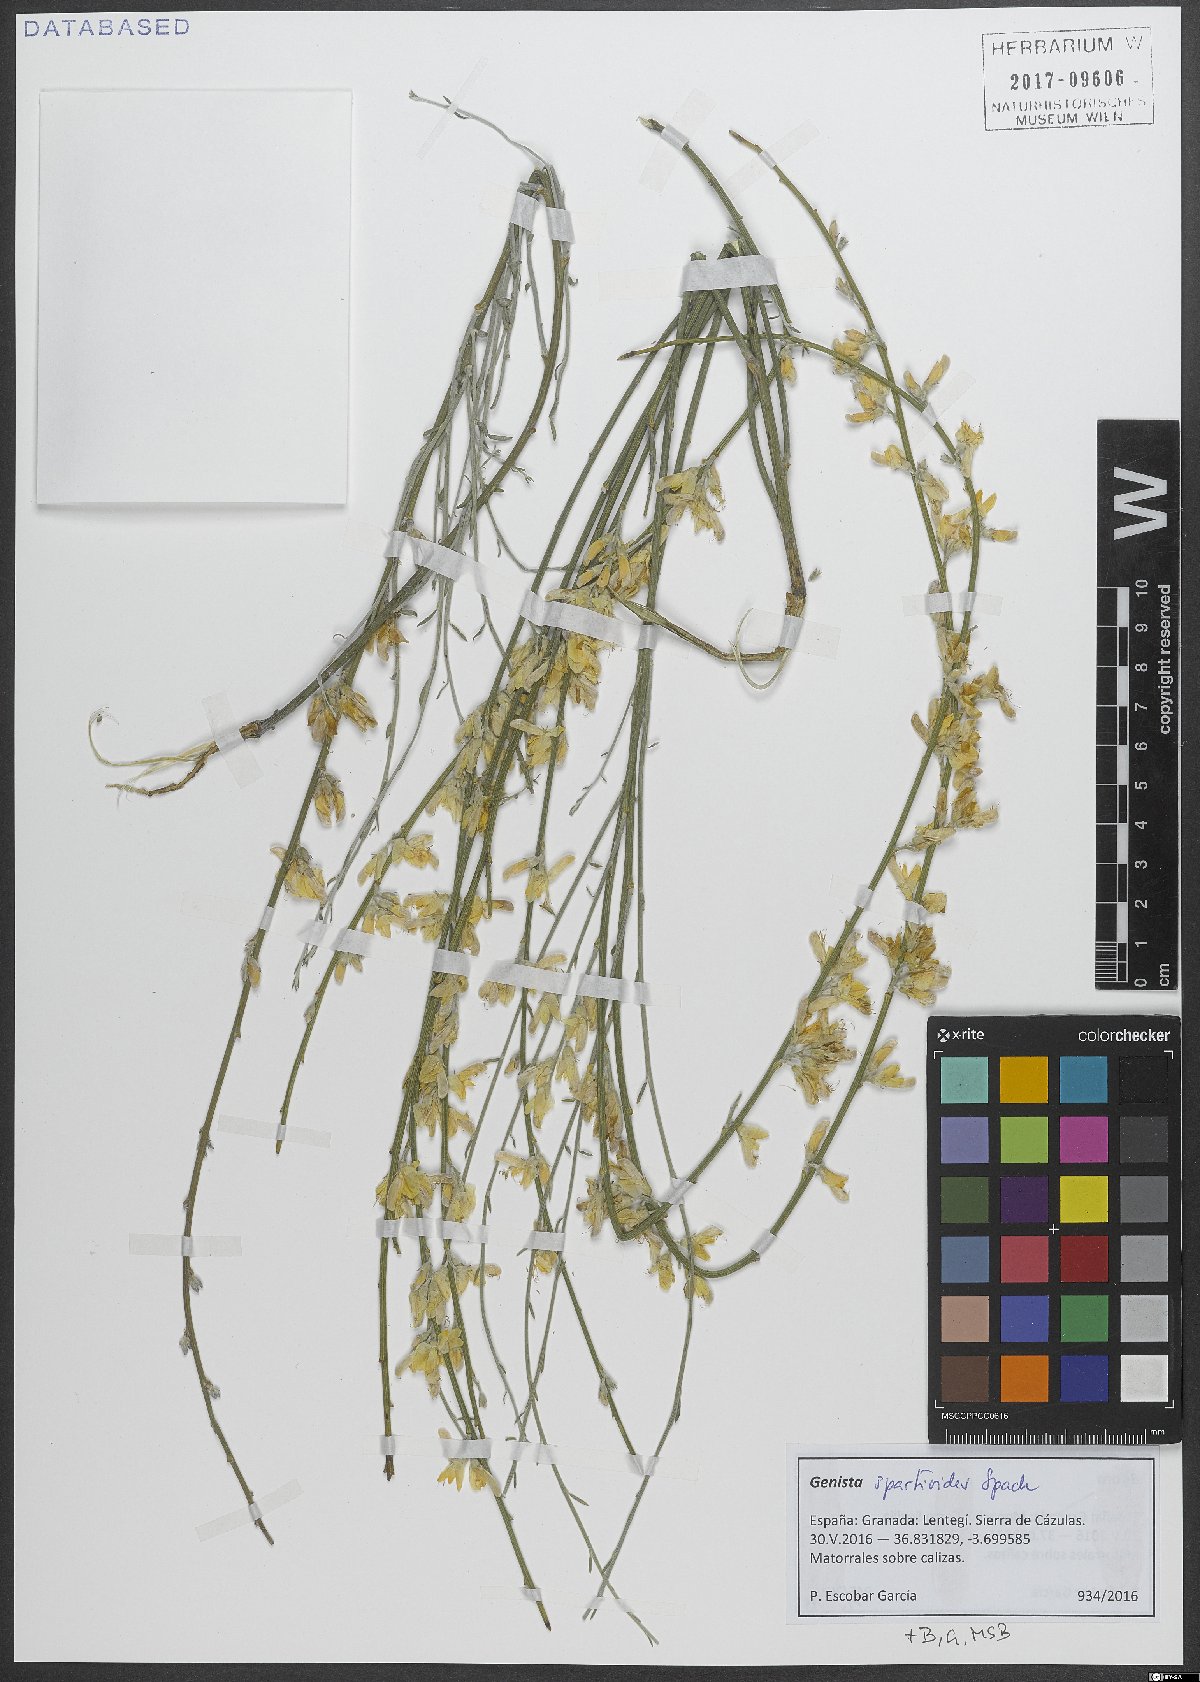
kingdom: Plantae
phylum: Tracheophyta
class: Magnoliopsida
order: Fabales
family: Fabaceae
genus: Genista
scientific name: Genista spartioides
